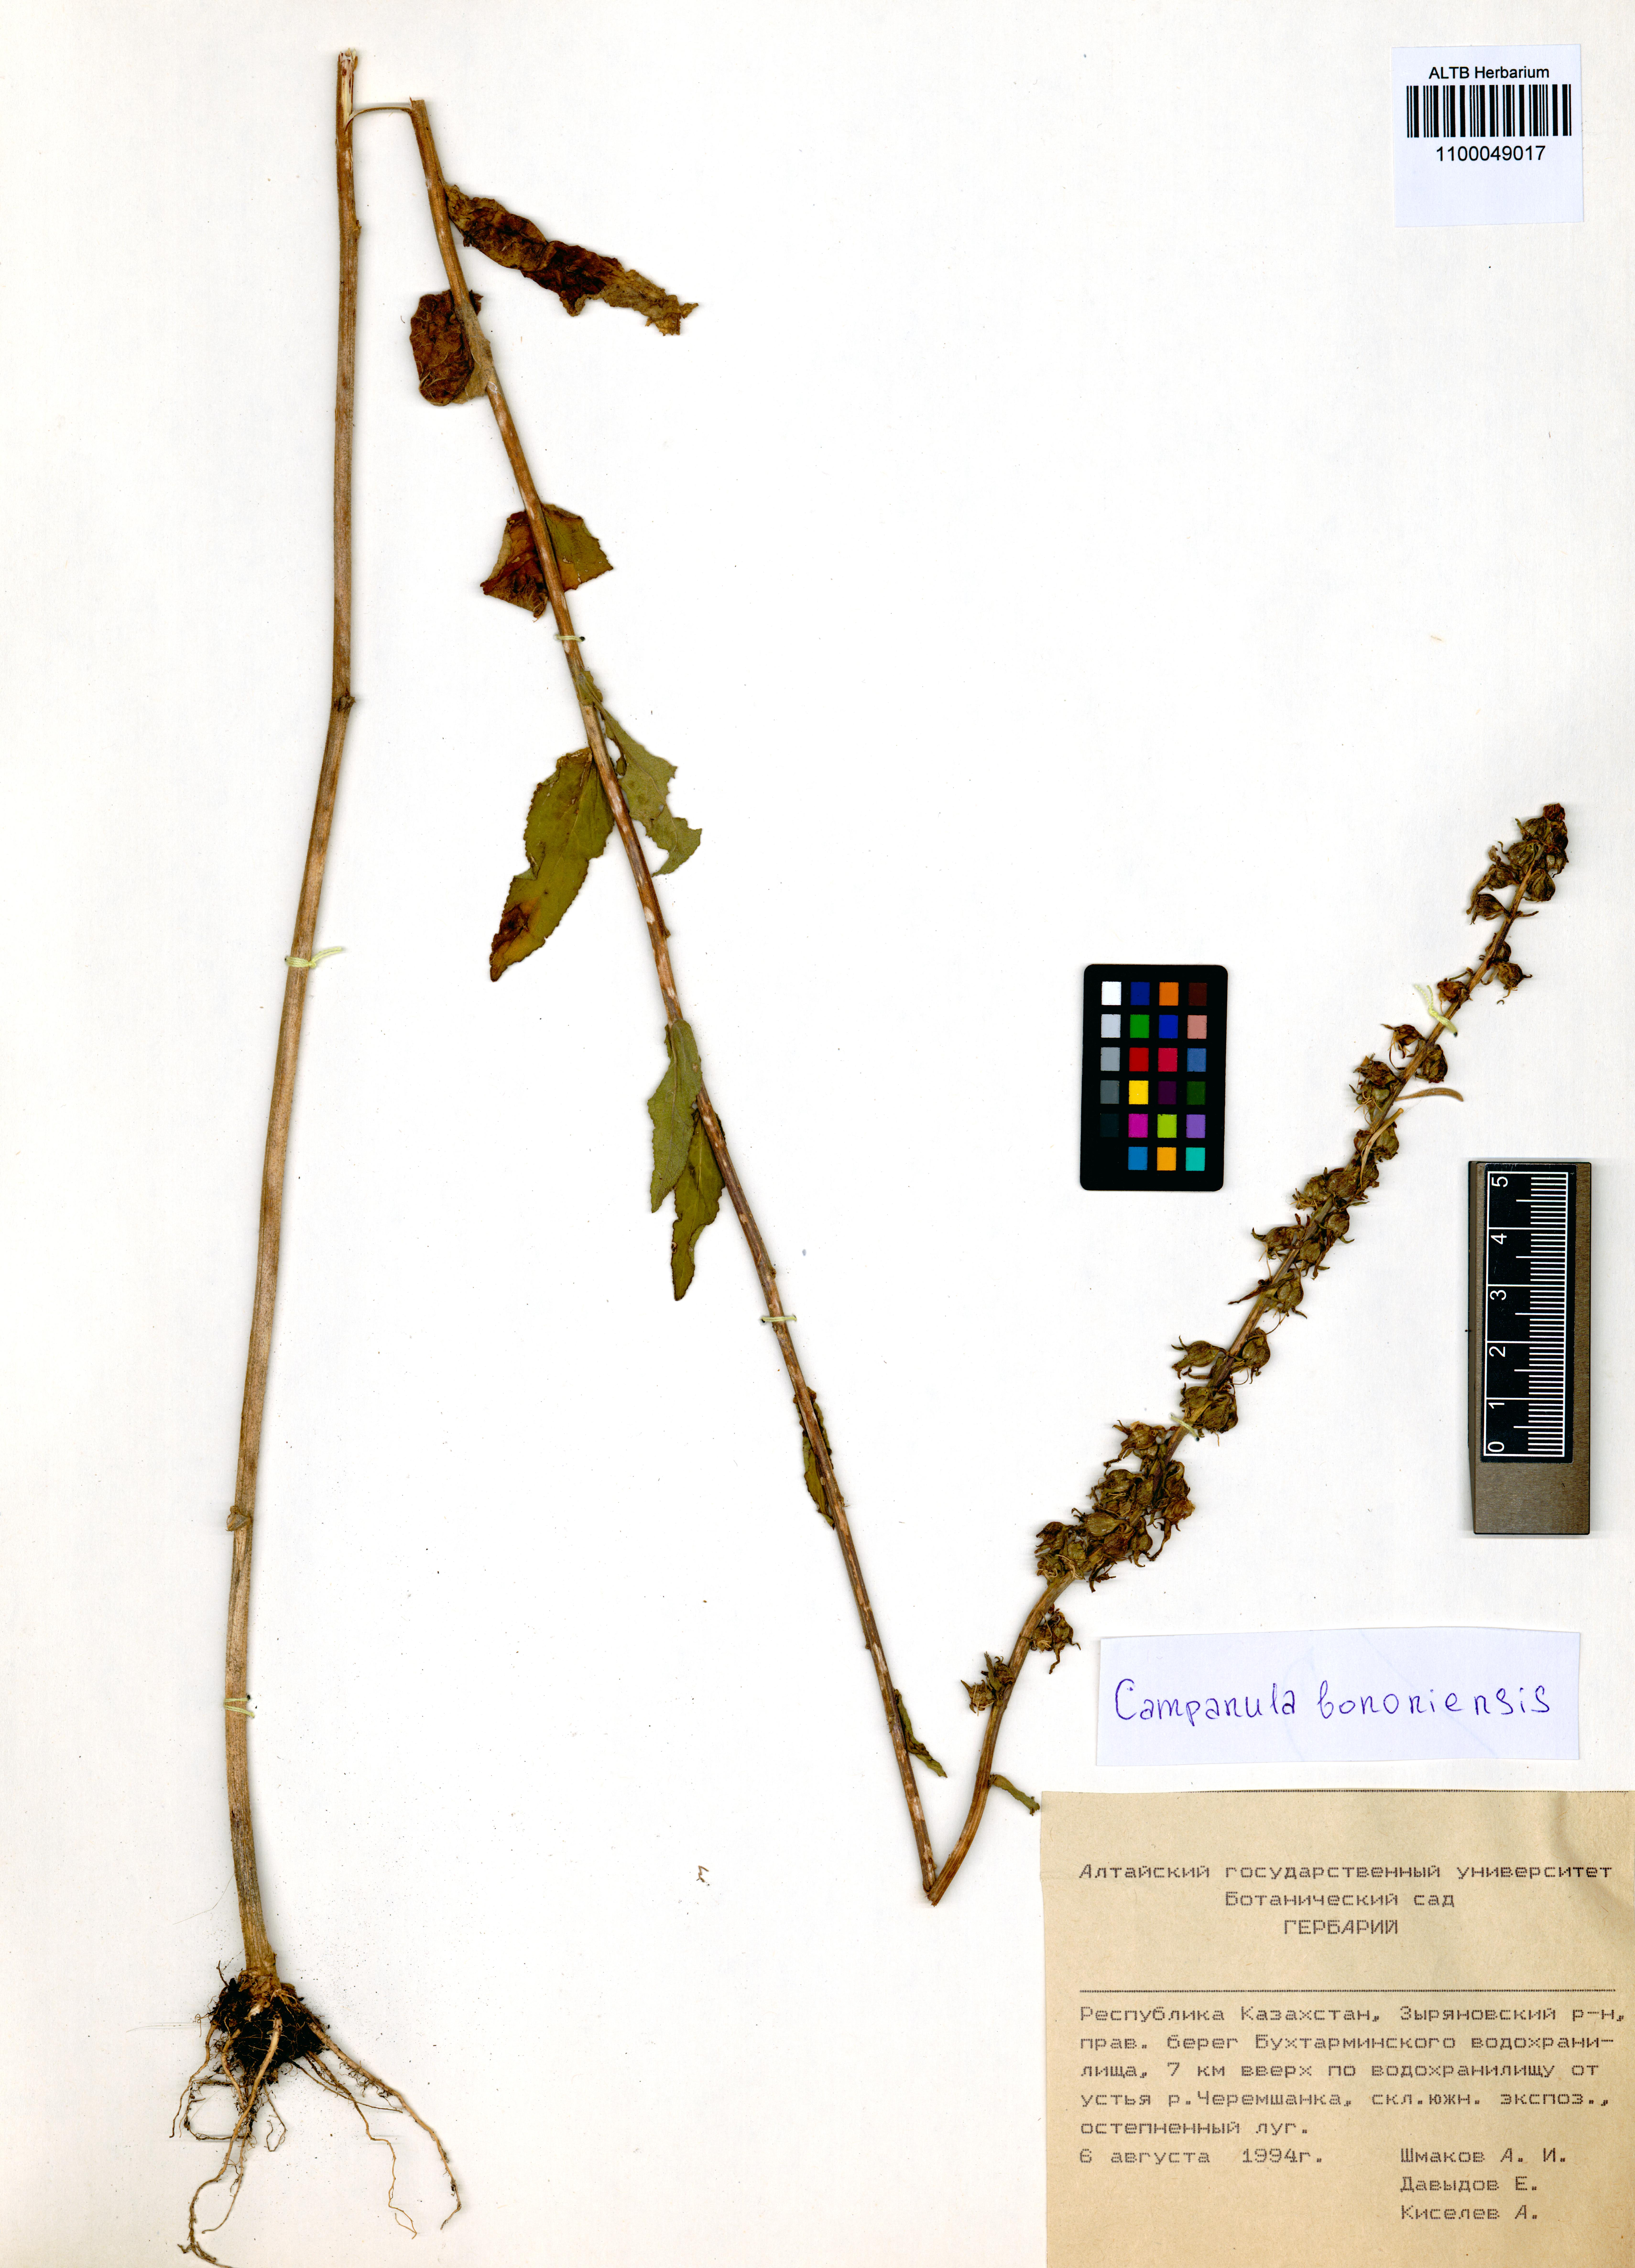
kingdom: Plantae
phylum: Tracheophyta
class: Magnoliopsida
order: Asterales
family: Campanulaceae
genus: Campanula
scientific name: Campanula bononiensis
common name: Pale bellflower
